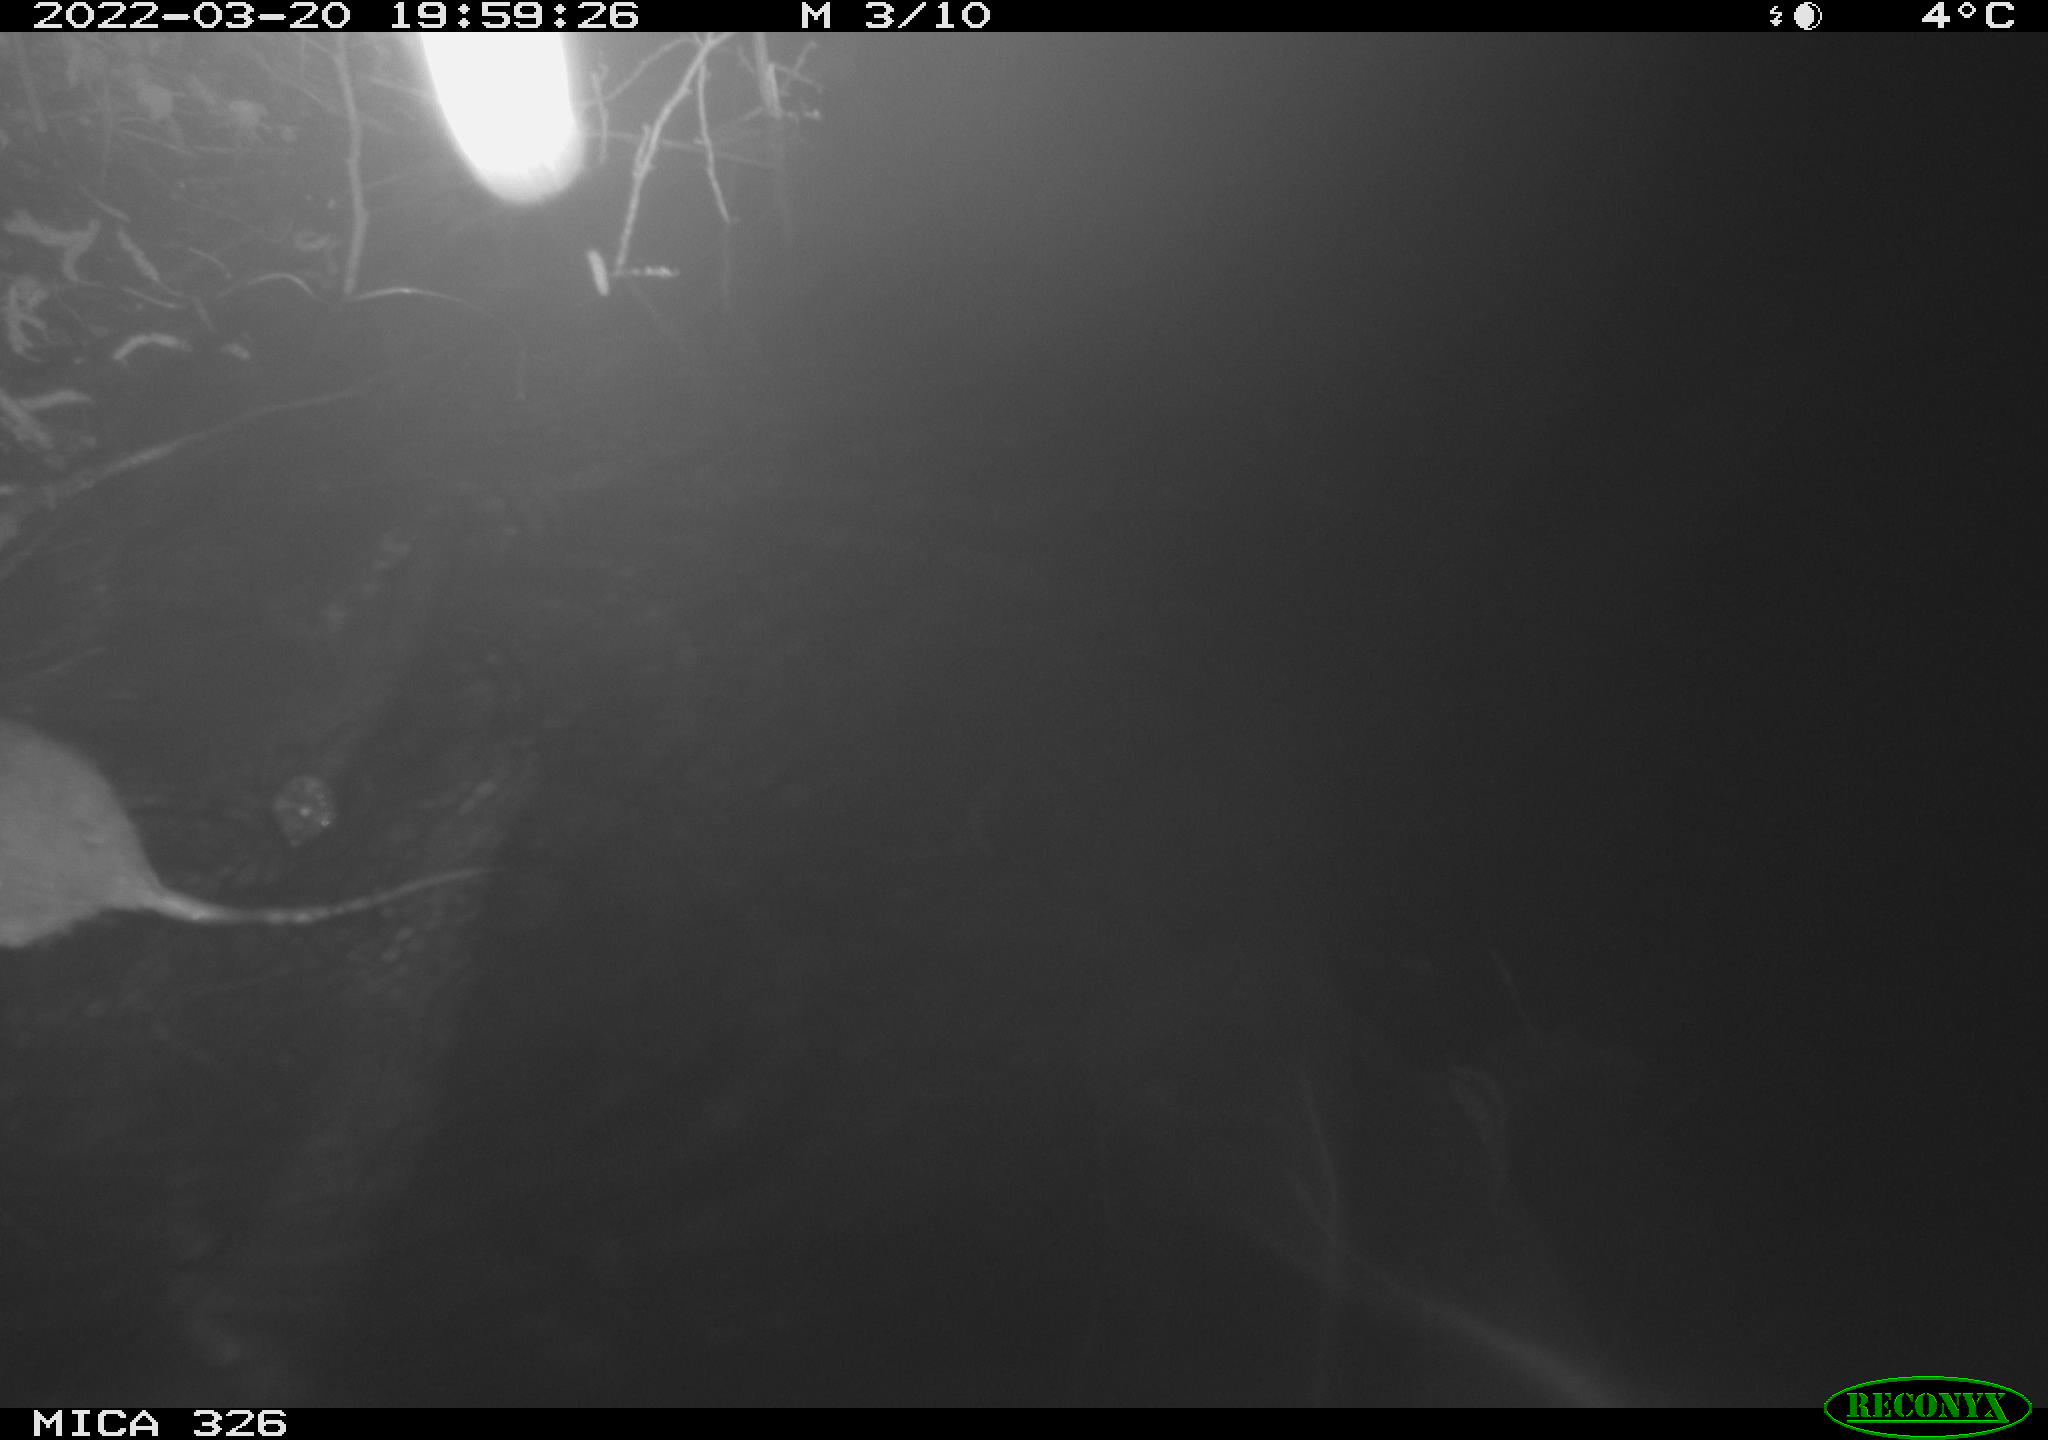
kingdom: Animalia
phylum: Chordata
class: Mammalia
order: Rodentia
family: Muridae
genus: Rattus
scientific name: Rattus norvegicus
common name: Brown rat
